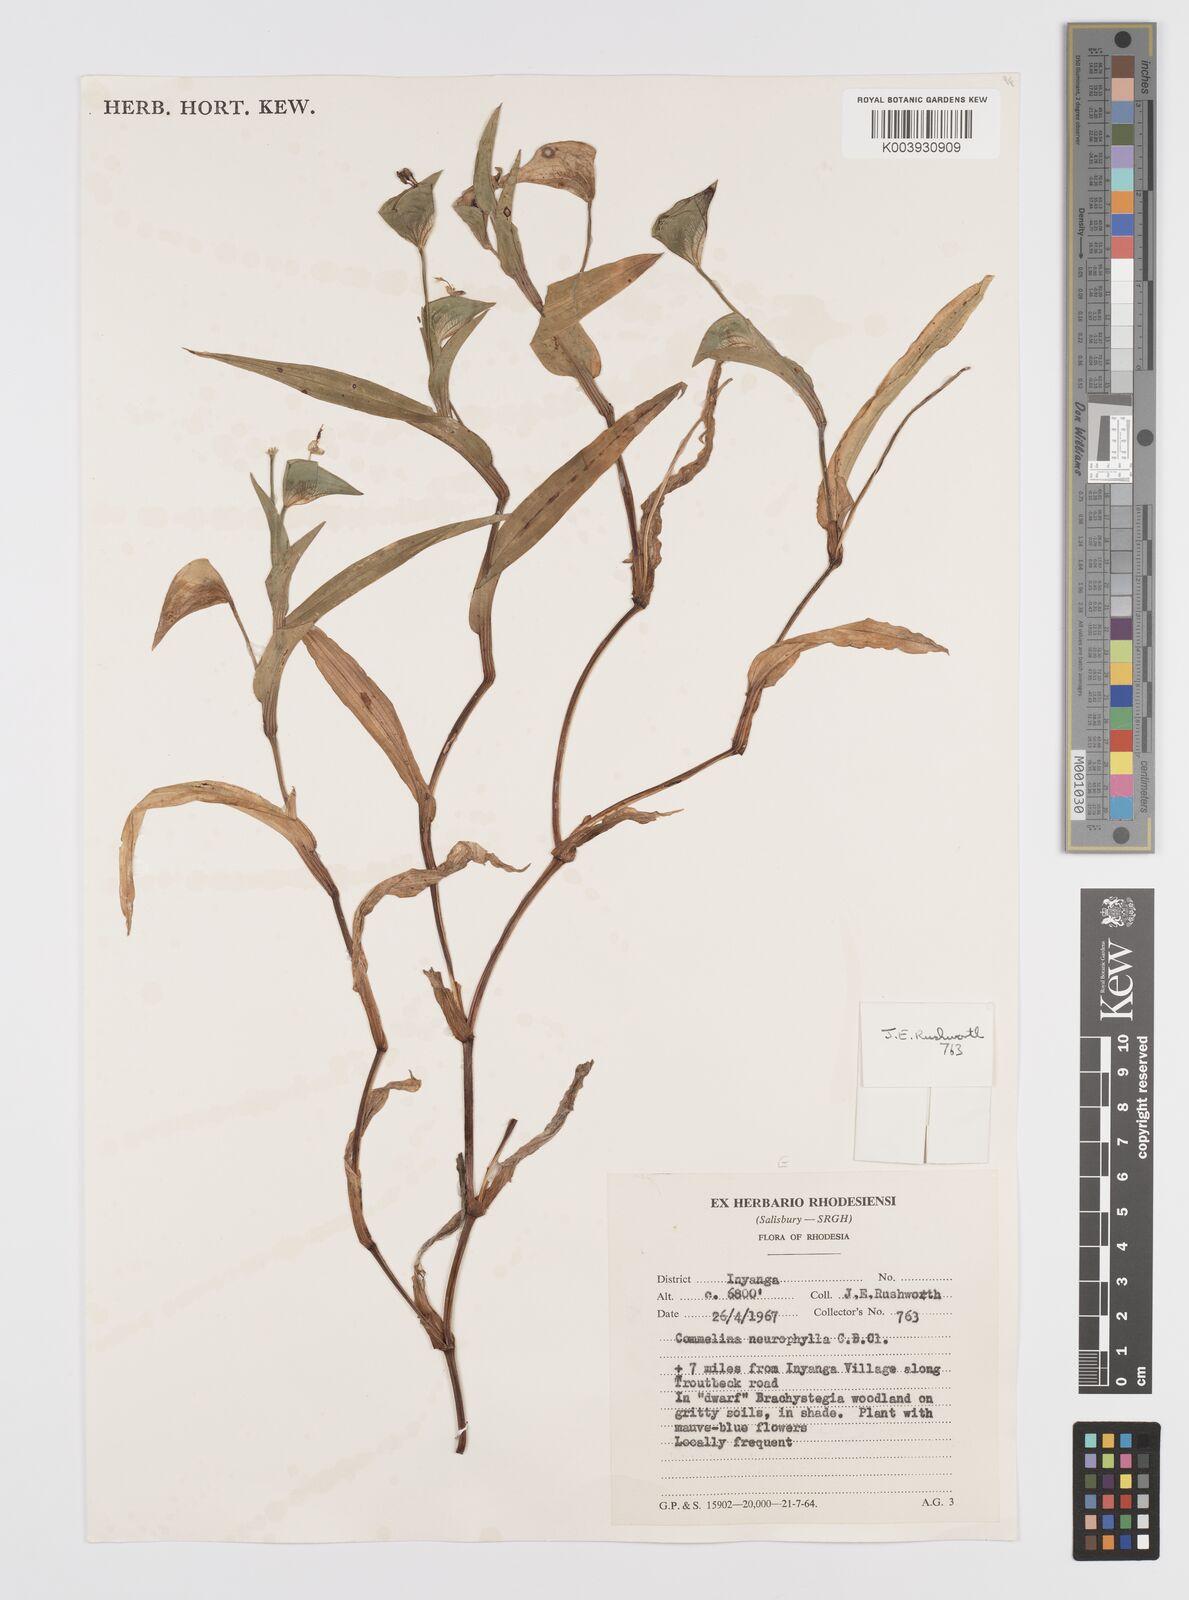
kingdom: Plantae
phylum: Tracheophyta
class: Liliopsida
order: Commelinales
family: Commelinaceae
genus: Commelina
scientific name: Commelina neurophylla
